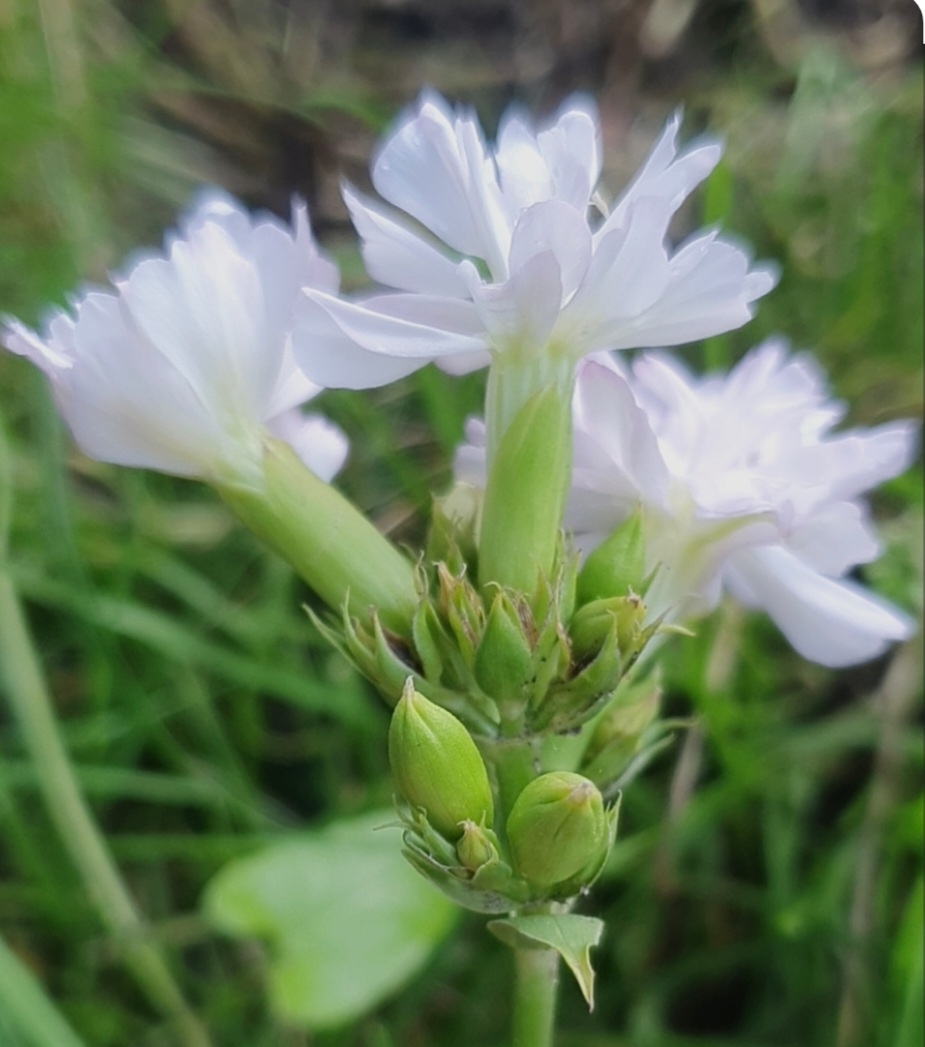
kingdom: Plantae
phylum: Tracheophyta
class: Magnoliopsida
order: Caryophyllales
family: Caryophyllaceae
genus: Saponaria
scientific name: Saponaria officinalis
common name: Sæbeurt
